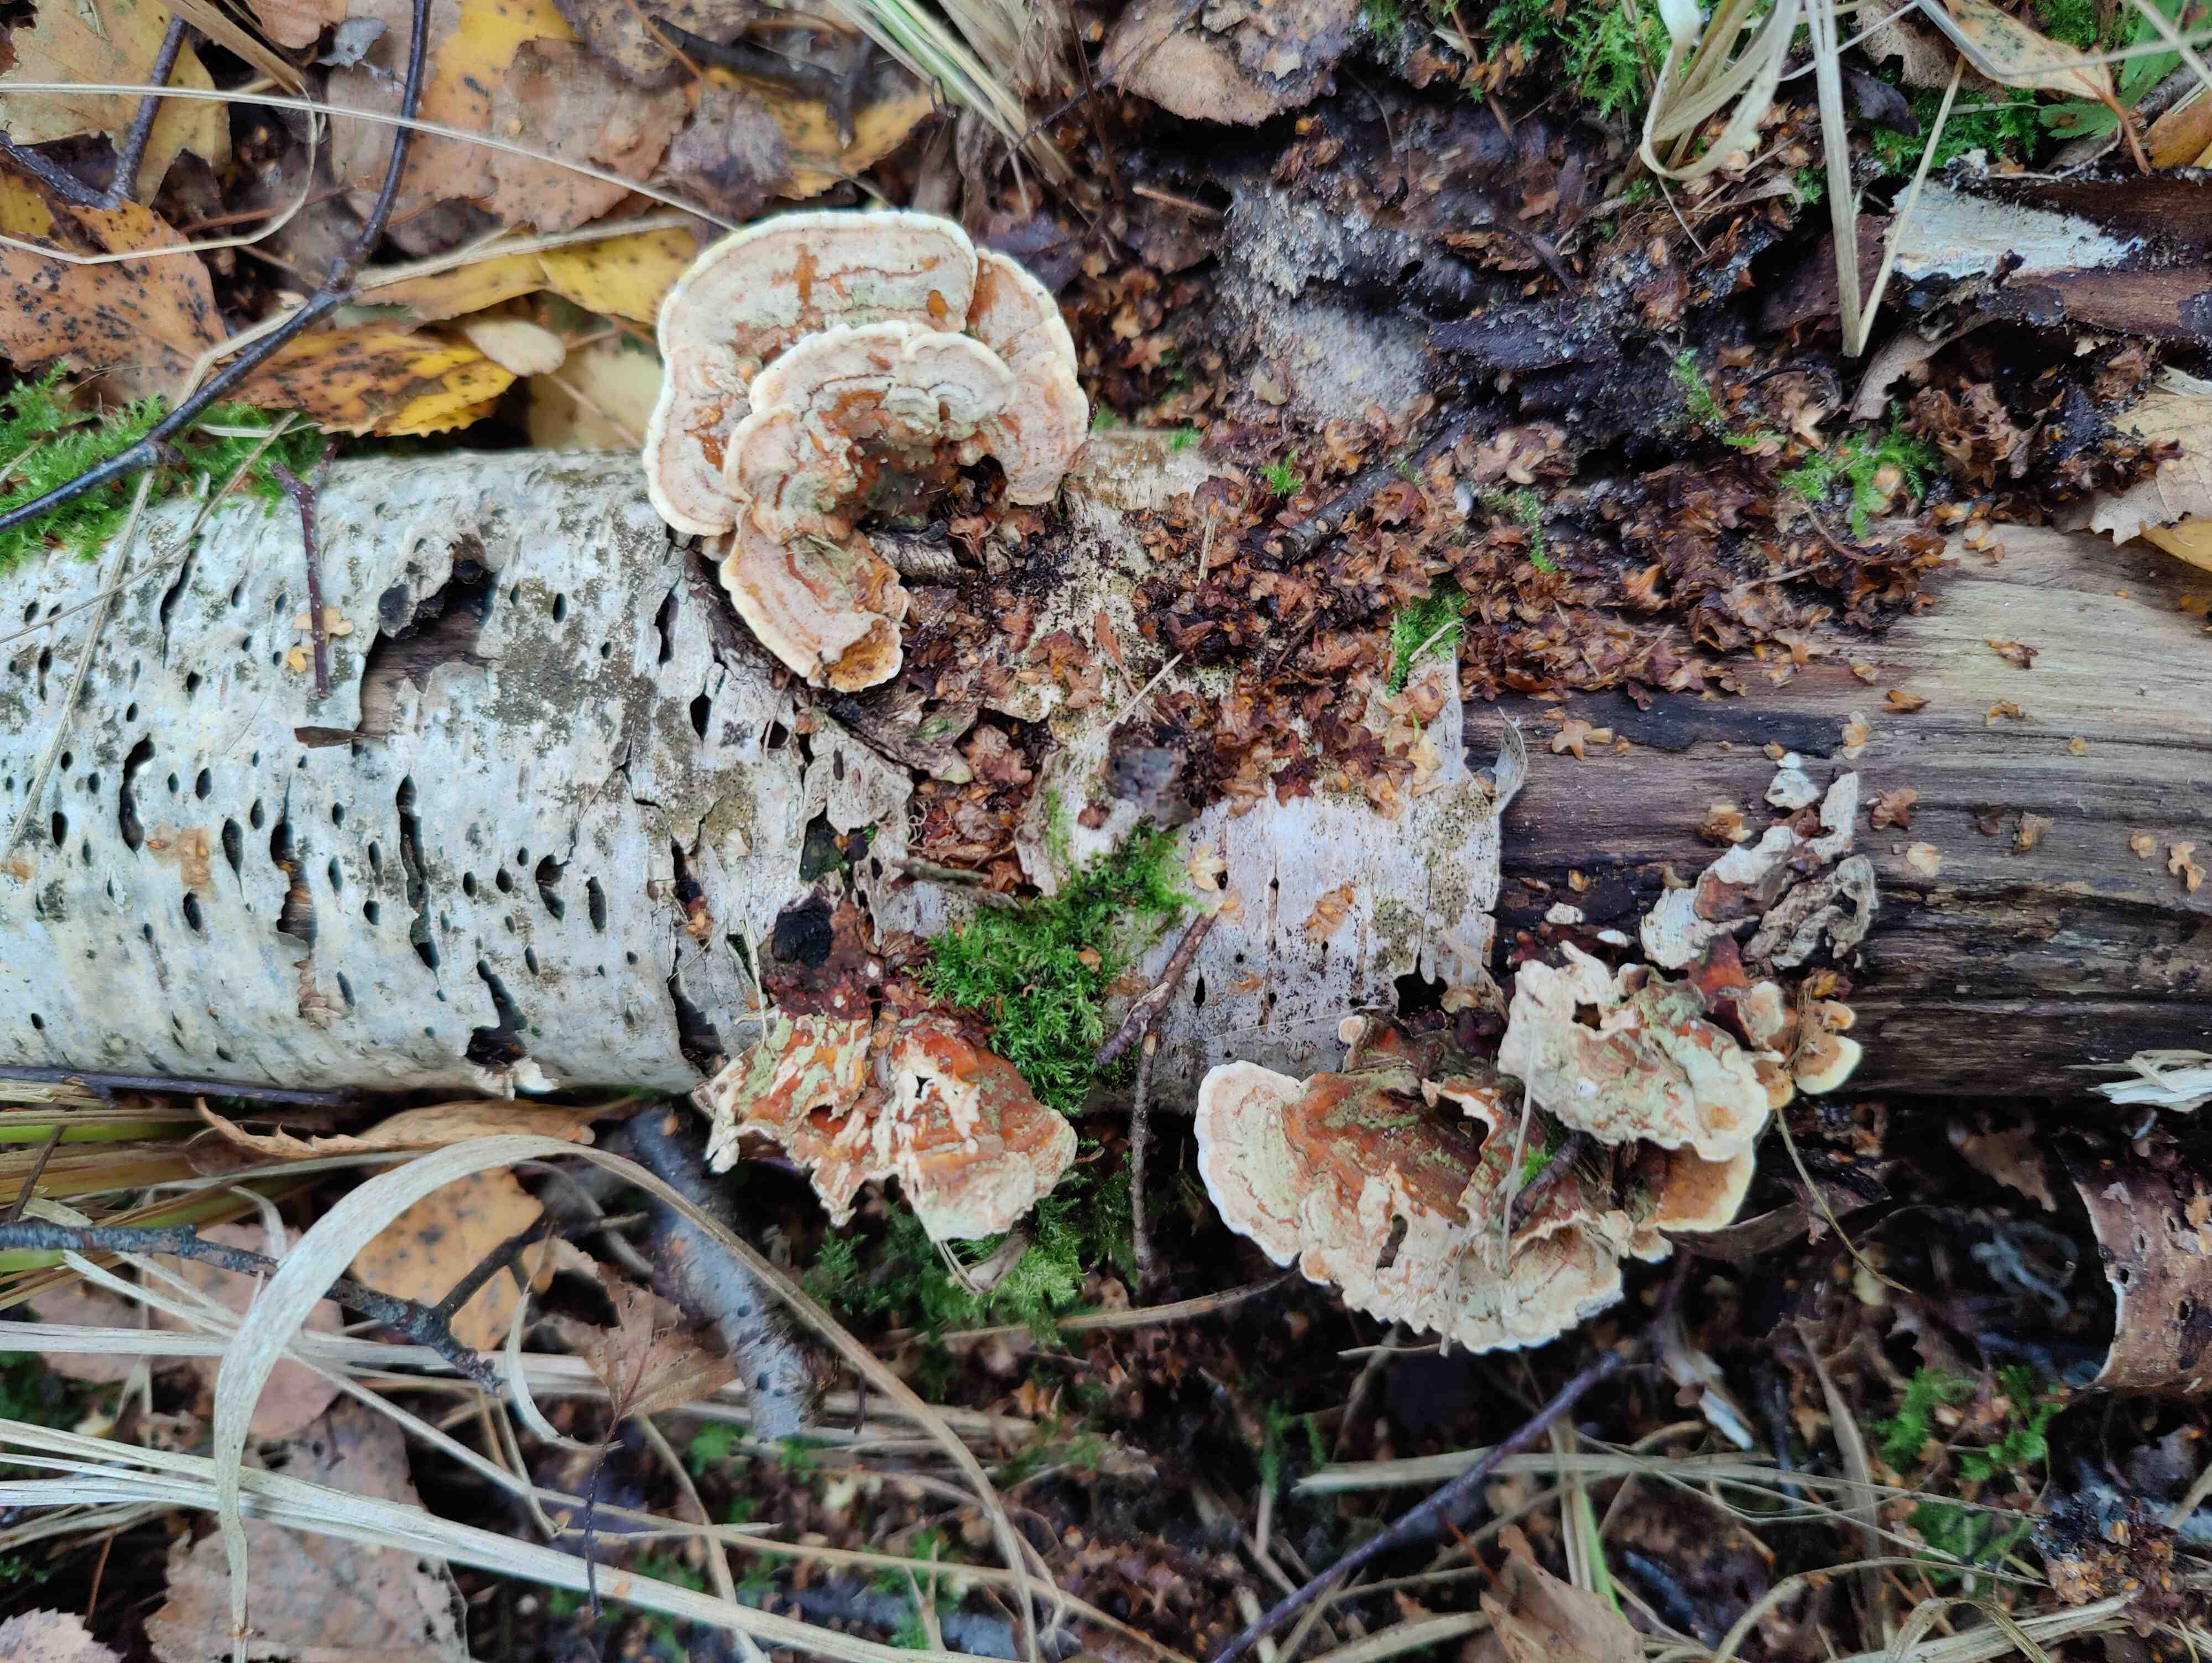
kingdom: Fungi
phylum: Basidiomycota
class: Agaricomycetes
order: Russulales
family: Stereaceae
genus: Stereum
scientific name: Stereum subtomentosum
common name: smuk lædersvamp
